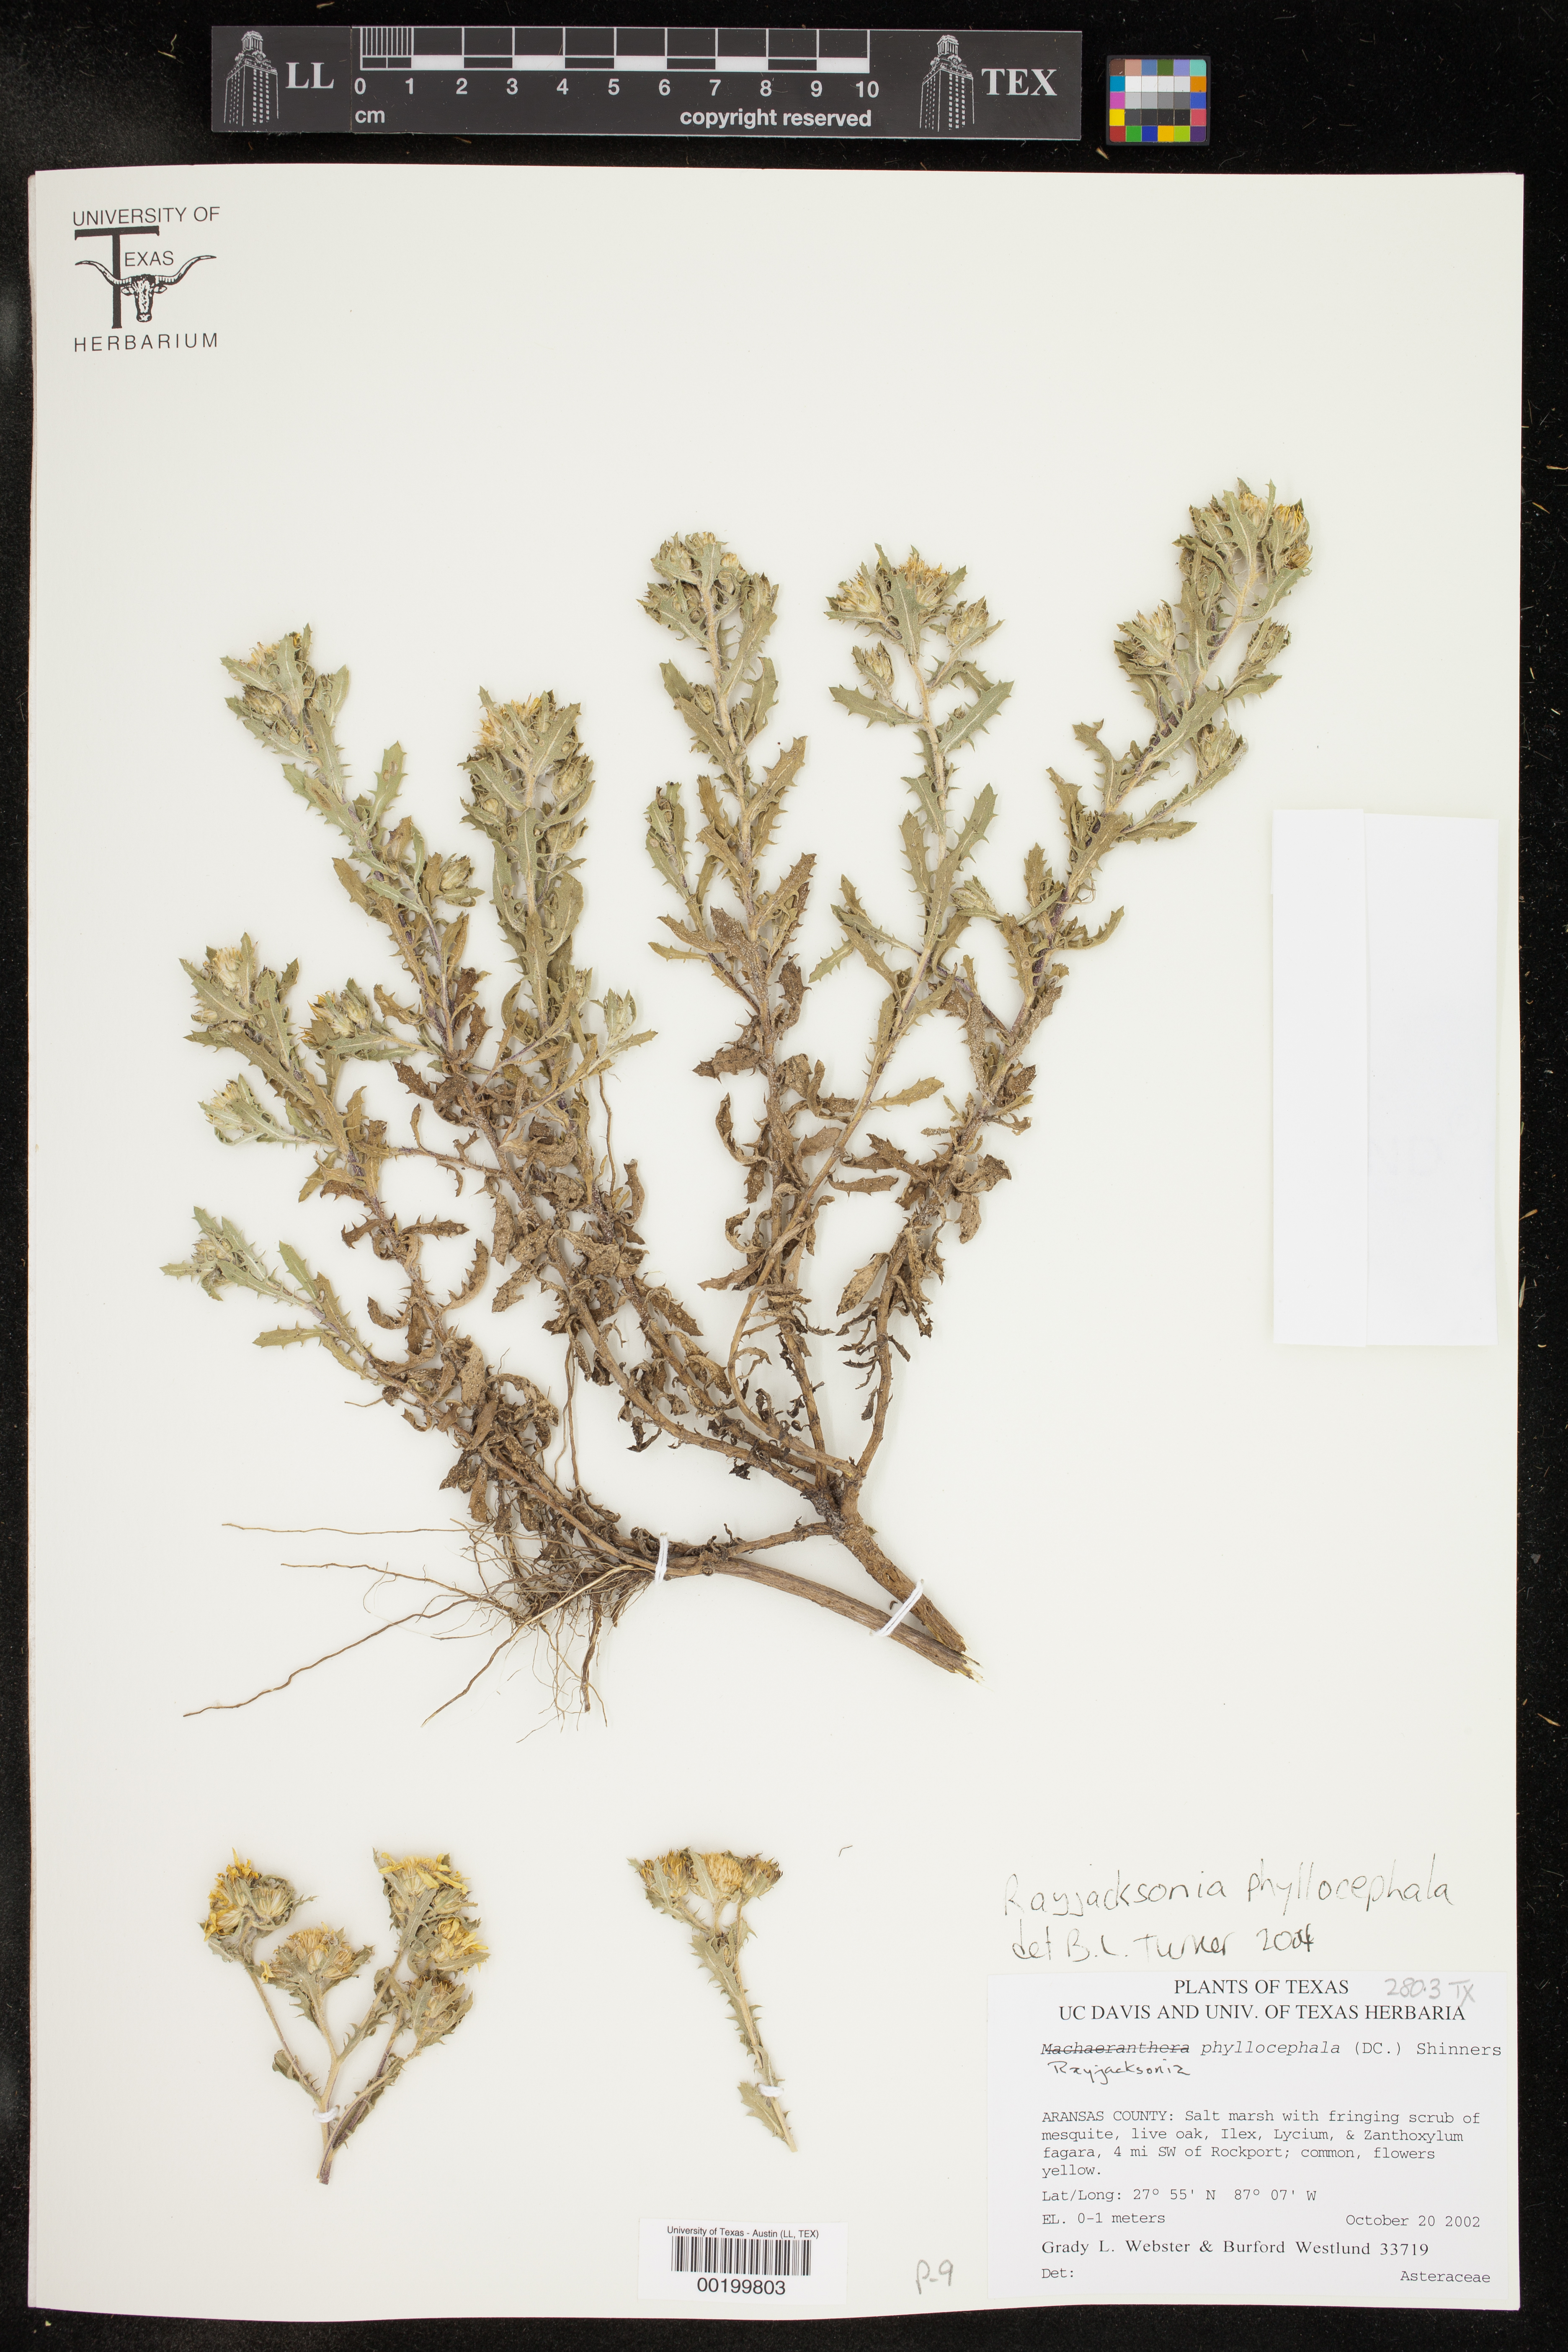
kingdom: Plantae
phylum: Tracheophyta
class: Magnoliopsida
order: Asterales
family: Asteraceae
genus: Rayjacksonia
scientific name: Rayjacksonia phyllocephala
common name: Gulf coast camphor daisy
